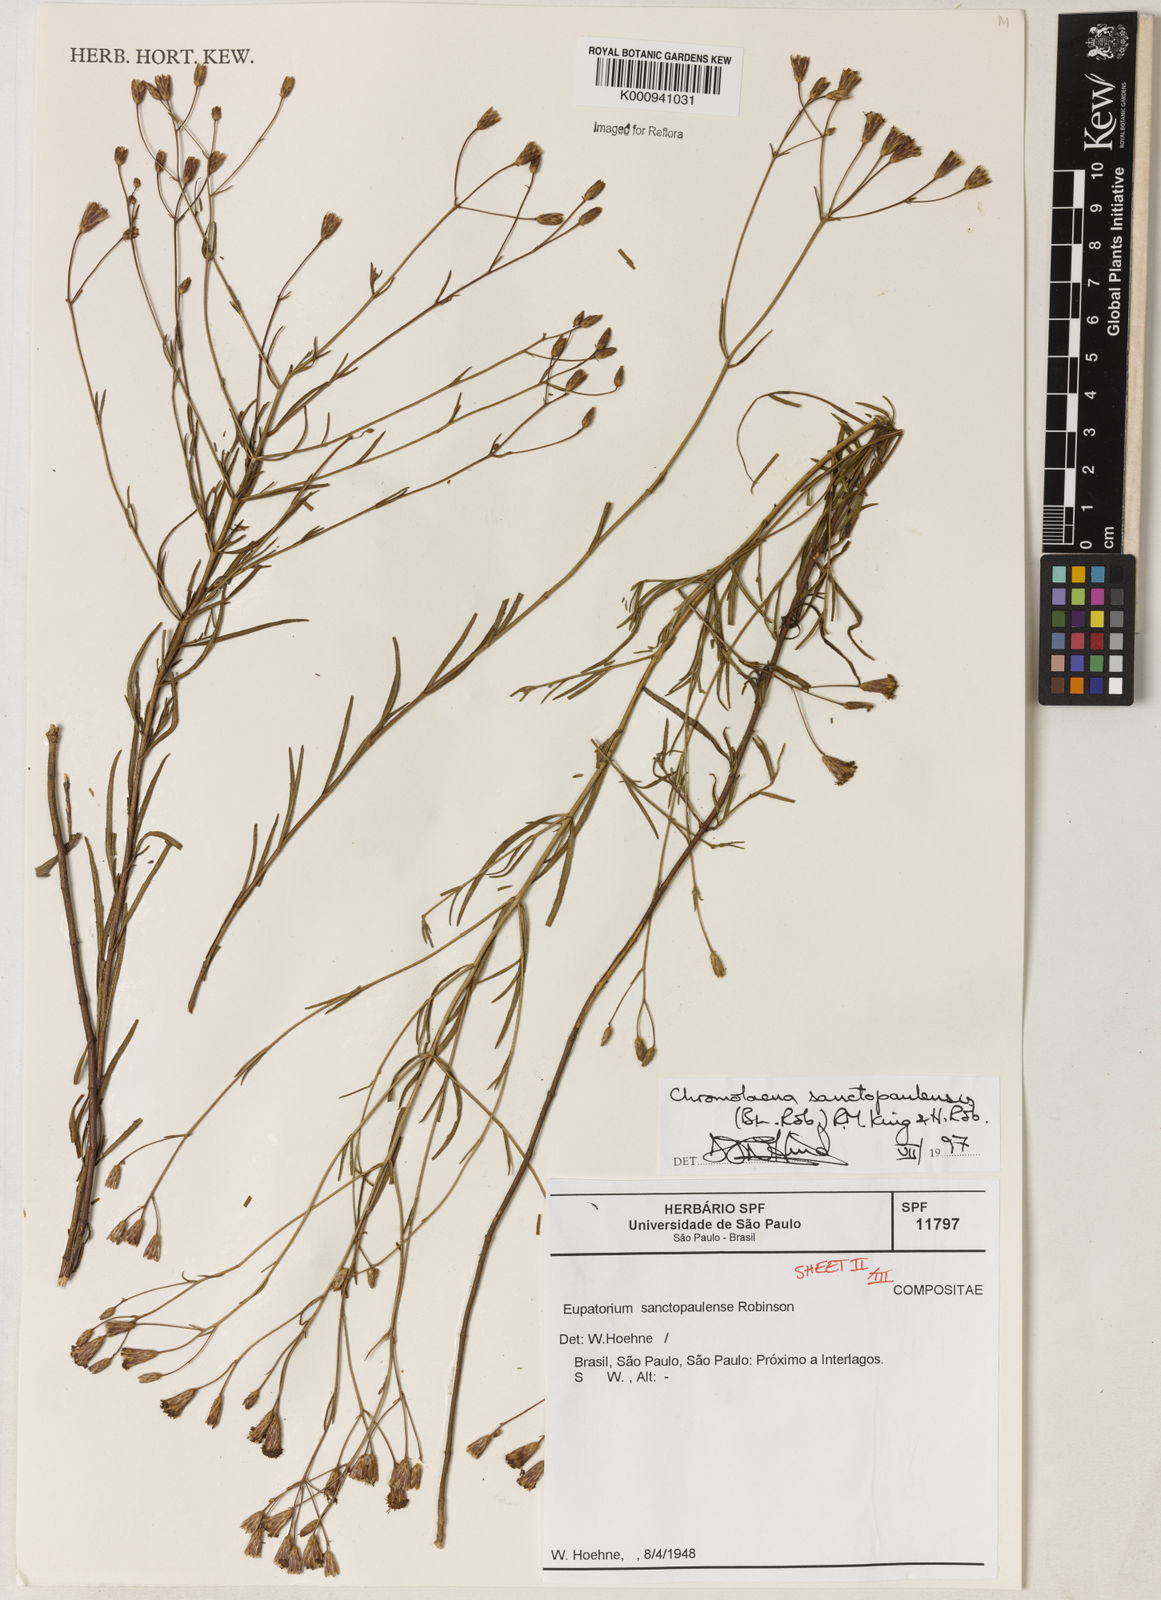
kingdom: Plantae
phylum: Tracheophyta
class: Magnoliopsida
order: Asterales
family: Asteraceae
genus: Chromolaena
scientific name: Chromolaena
